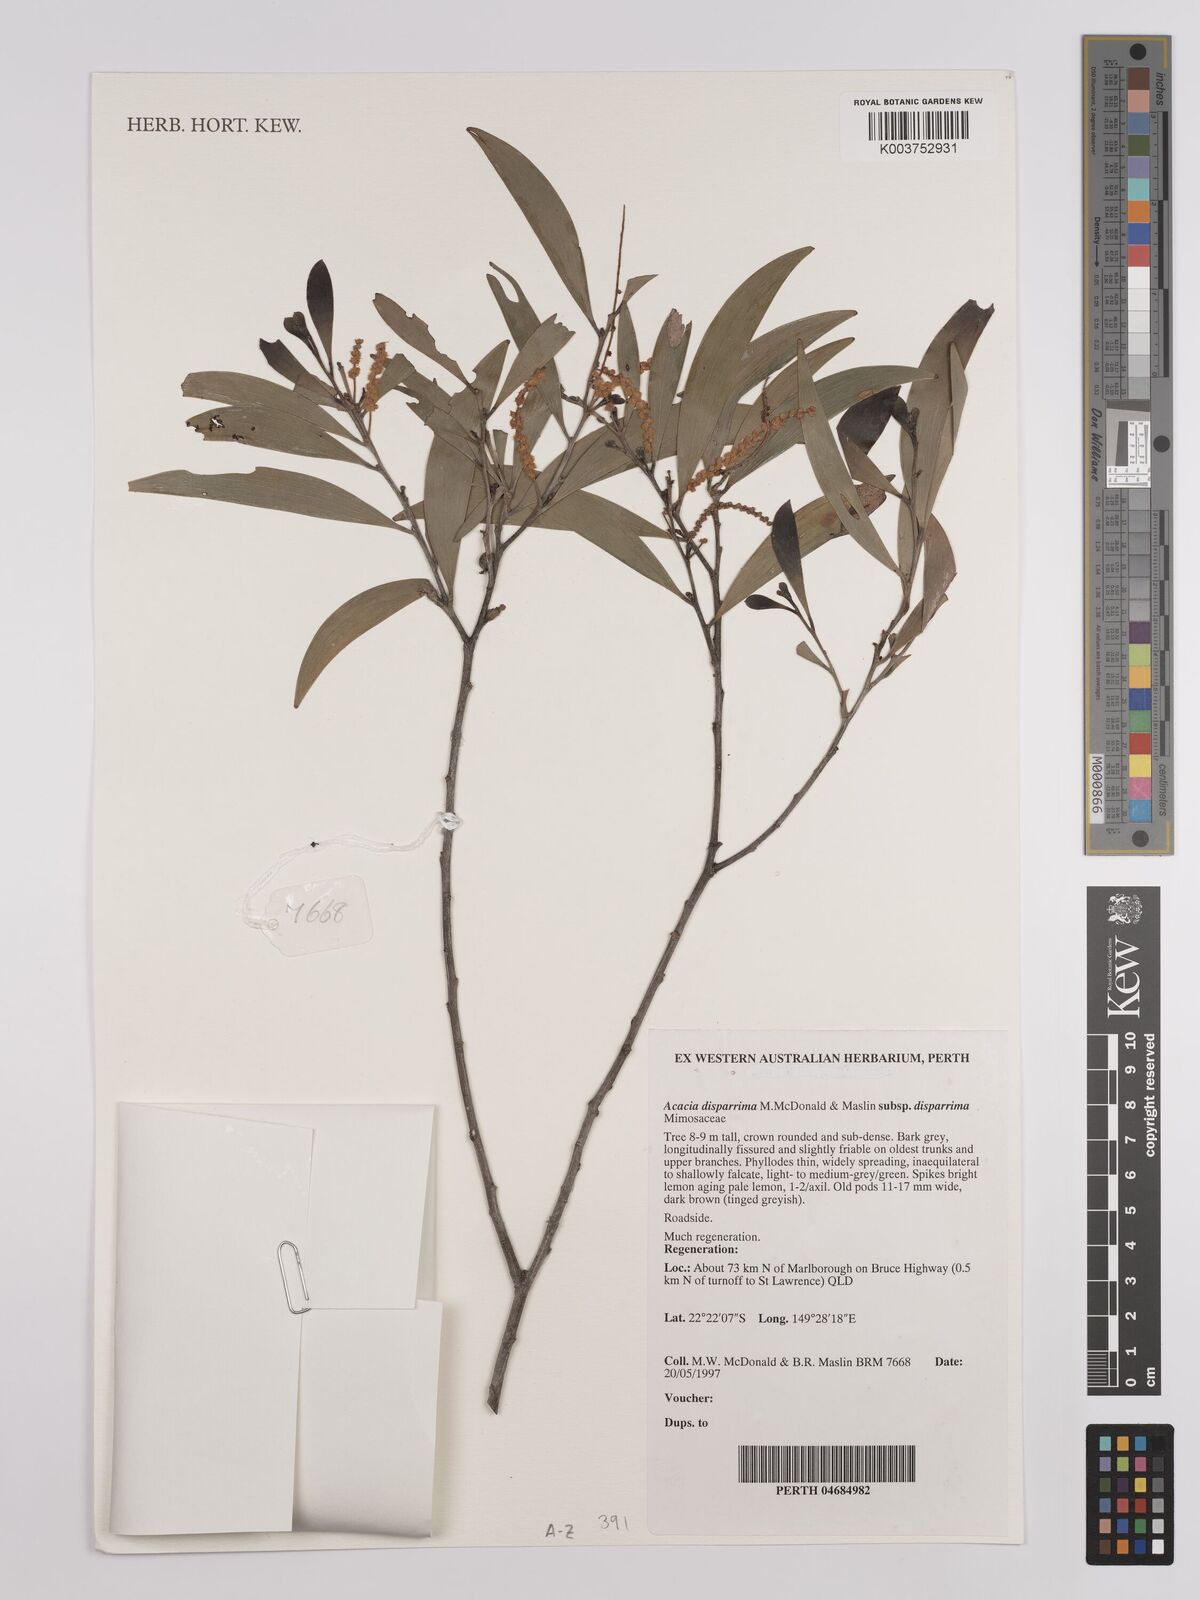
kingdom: Plantae
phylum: Tracheophyta
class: Magnoliopsida
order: Fabales
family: Fabaceae
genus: Acacia
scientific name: Acacia disparrima
